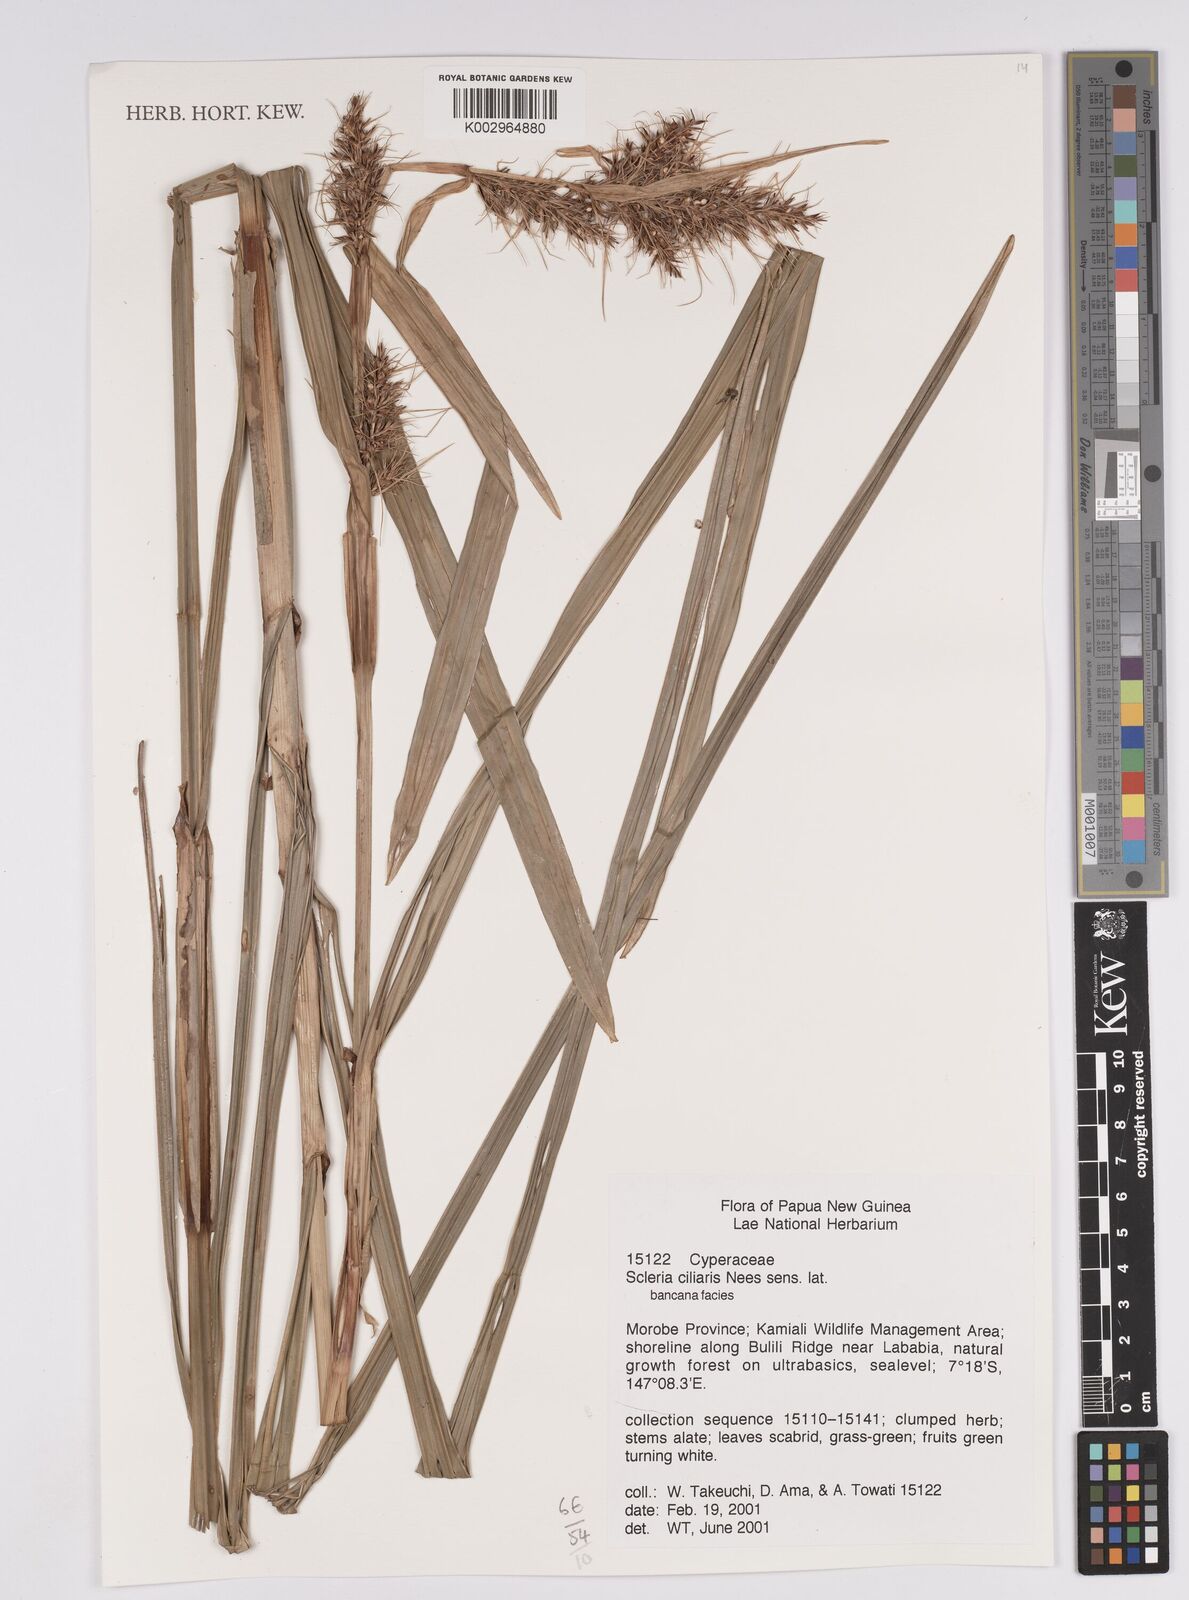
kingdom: Plantae
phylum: Tracheophyta
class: Liliopsida
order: Poales
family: Cyperaceae
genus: Scleria
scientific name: Scleria ciliaris
